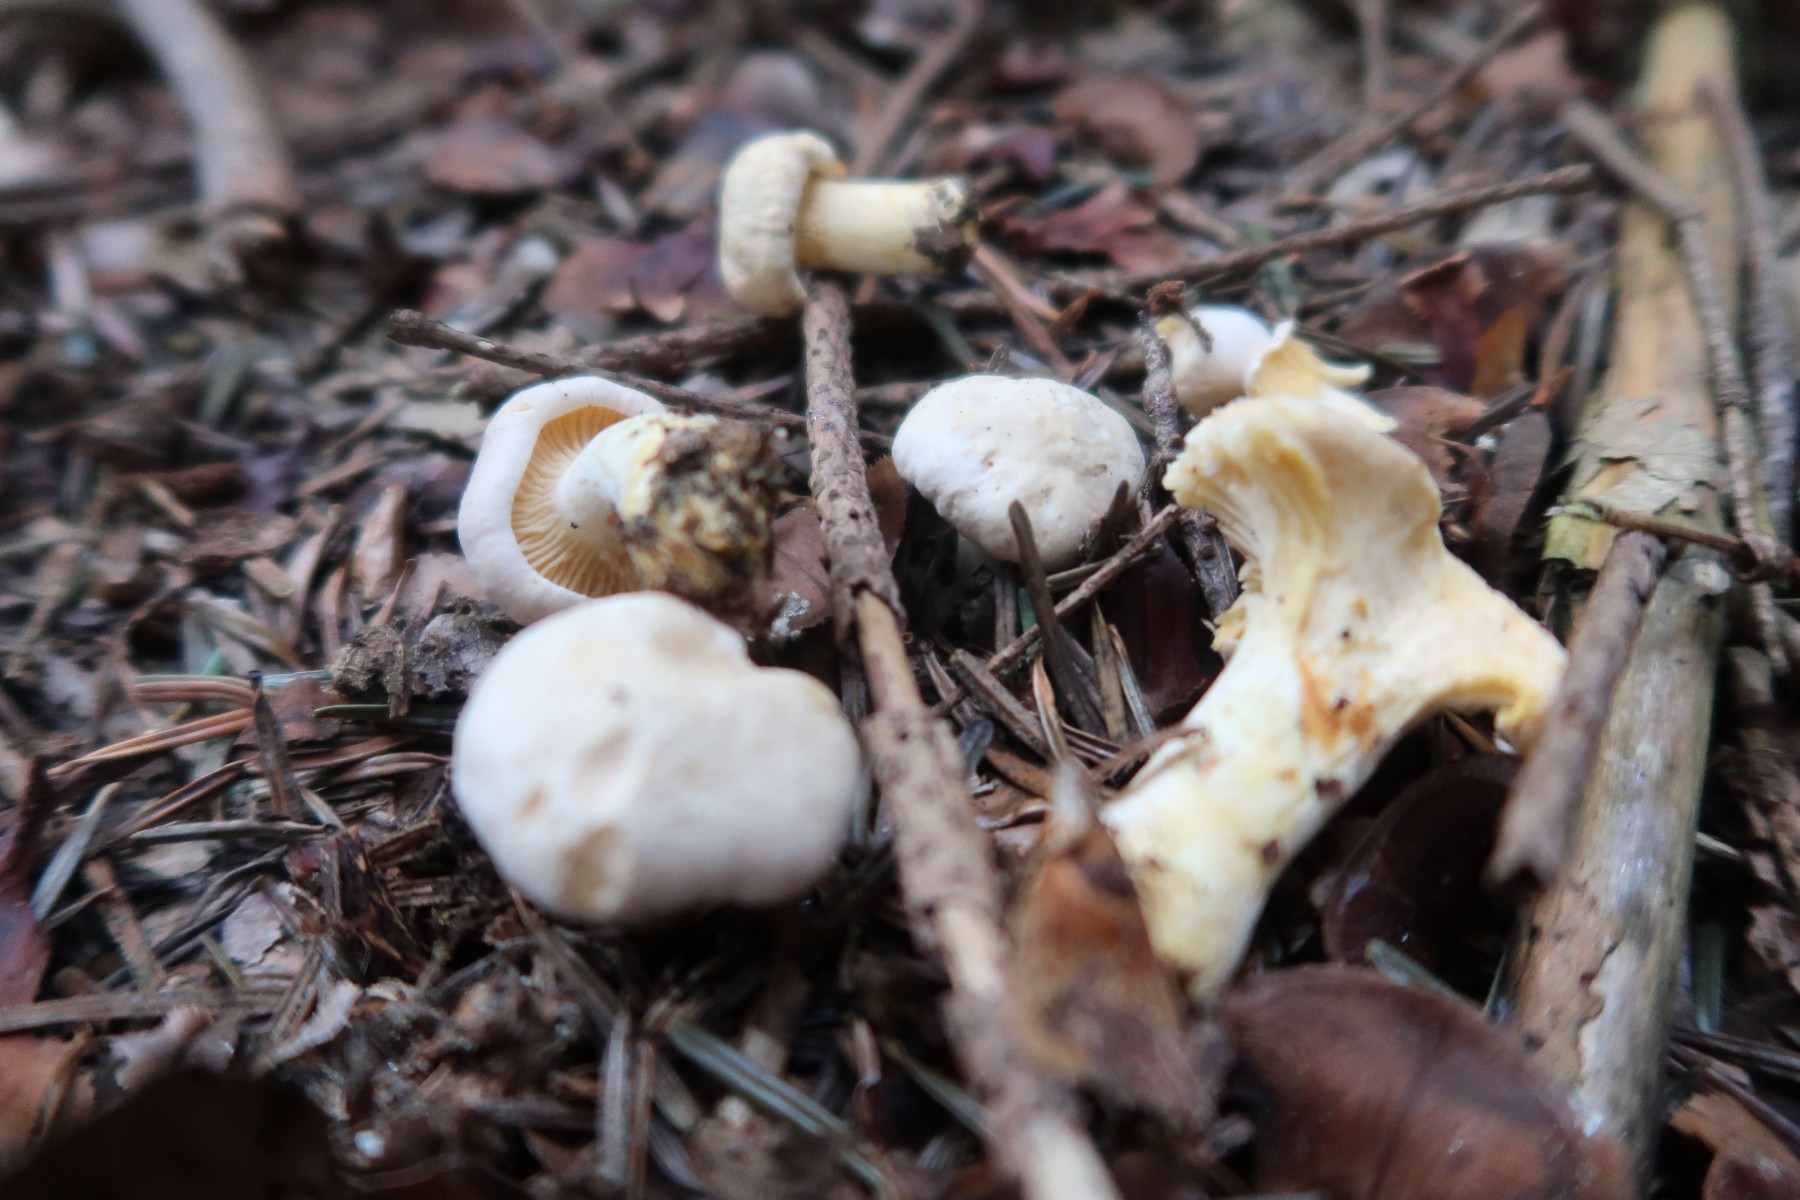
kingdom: Fungi
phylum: Basidiomycota
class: Agaricomycetes
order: Cantharellales
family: Hydnaceae
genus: Cantharellus
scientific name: Cantharellus pallens
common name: bleg kantarel
